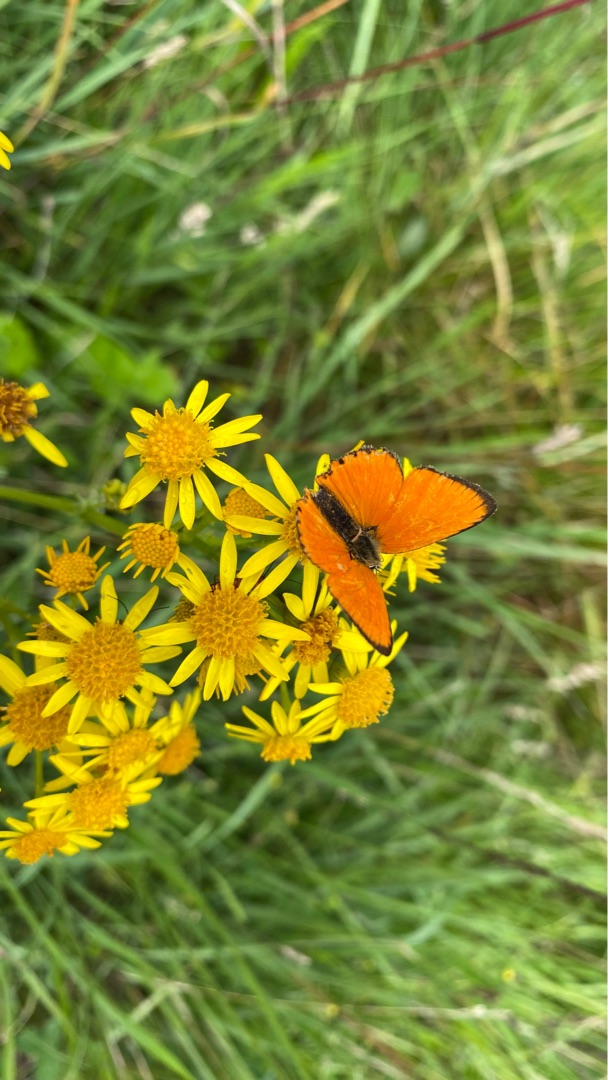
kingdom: Animalia
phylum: Arthropoda
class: Insecta
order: Lepidoptera
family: Lycaenidae
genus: Lycaena
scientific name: Lycaena virgaureae
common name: Dukatsommerfugl
